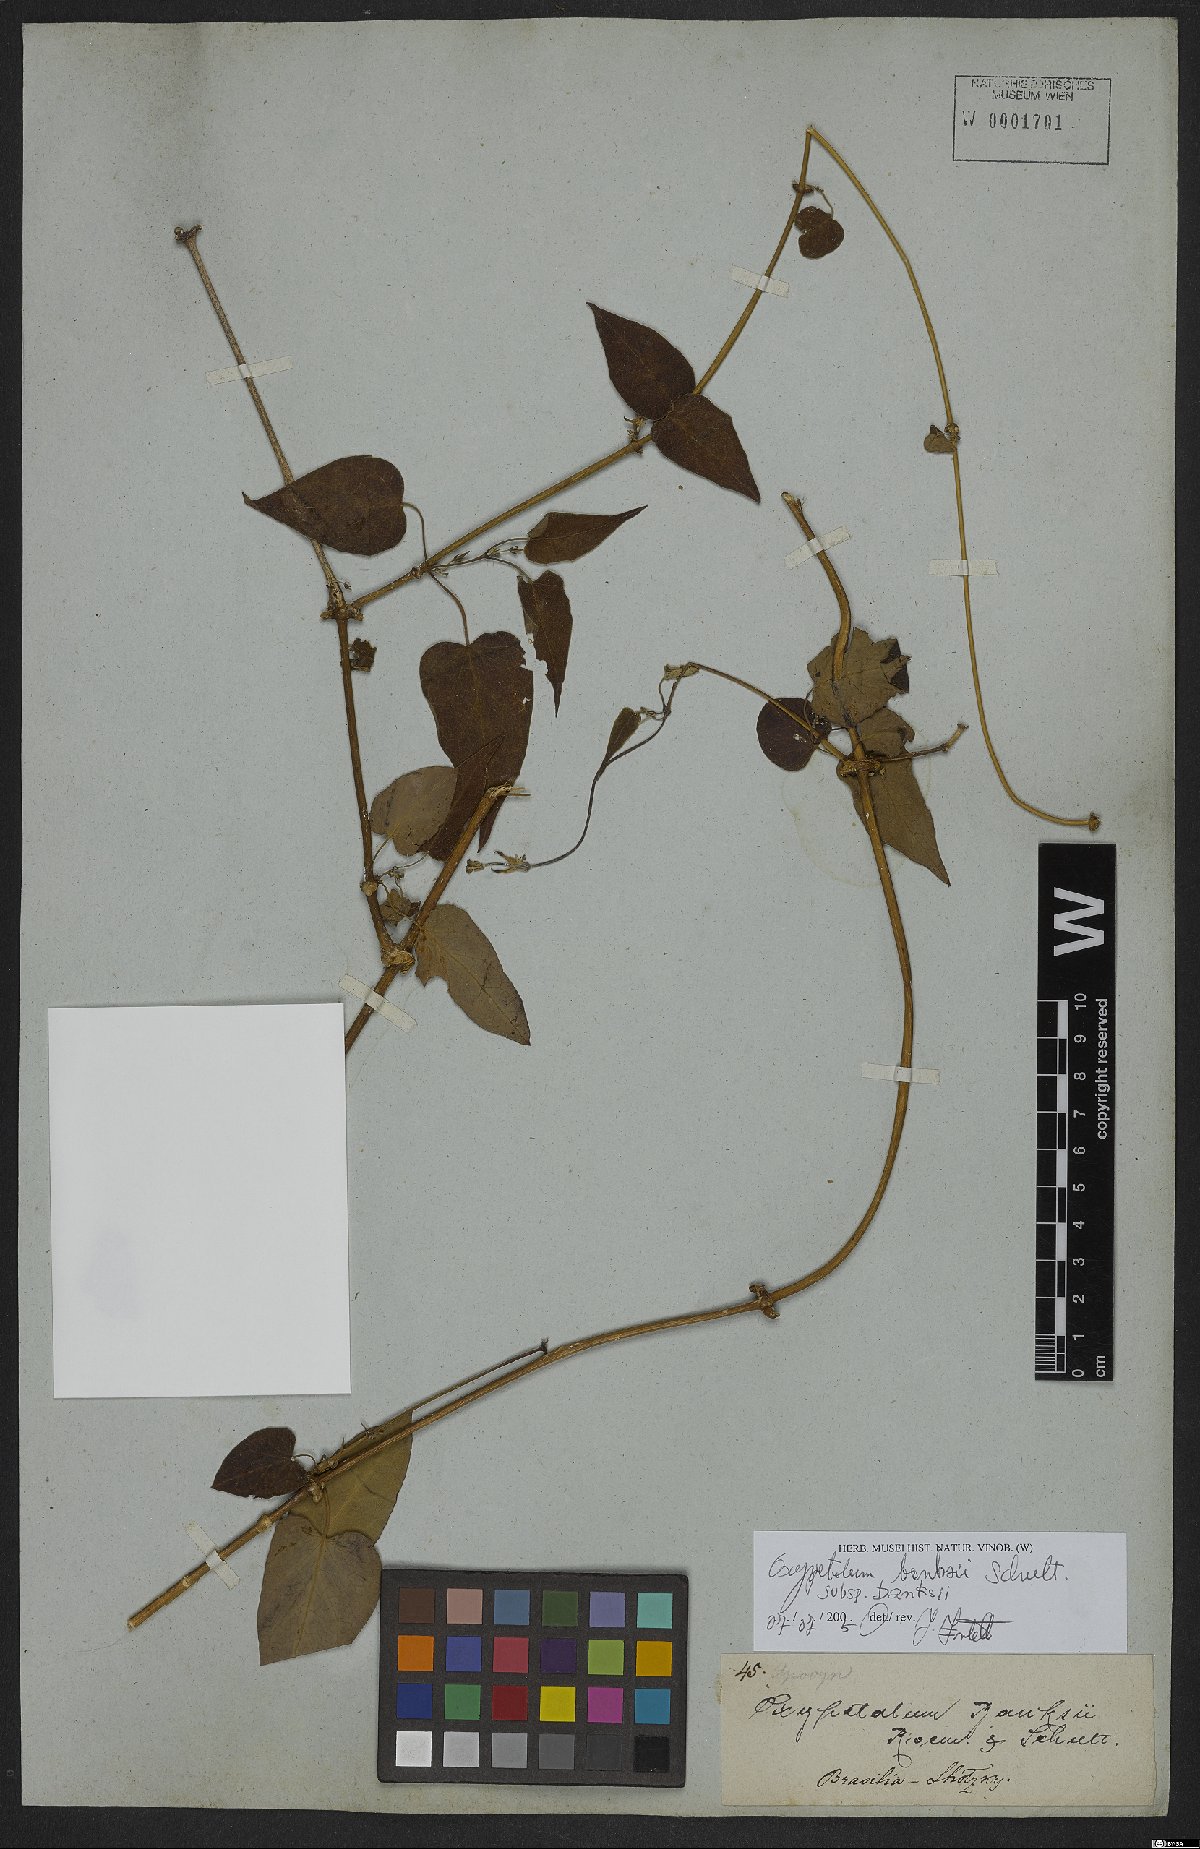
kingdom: Plantae
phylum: Tracheophyta
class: Magnoliopsida
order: Gentianales
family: Apocynaceae
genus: Oxypetalum
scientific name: Oxypetalum banksii
